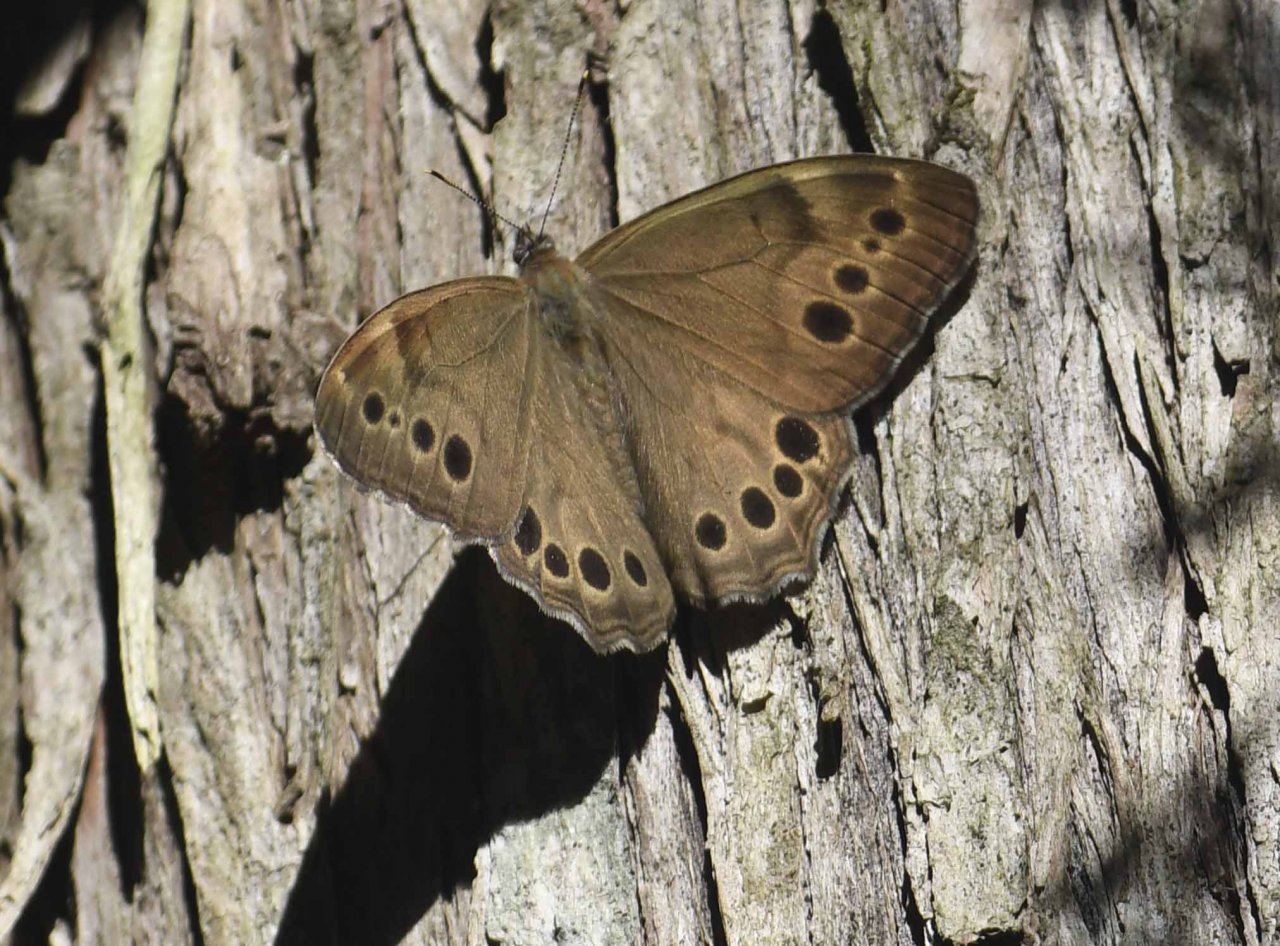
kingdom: Animalia
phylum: Arthropoda
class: Insecta
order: Lepidoptera
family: Nymphalidae
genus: Lethe
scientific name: Lethe anthedon
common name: Northern Pearly-Eye
